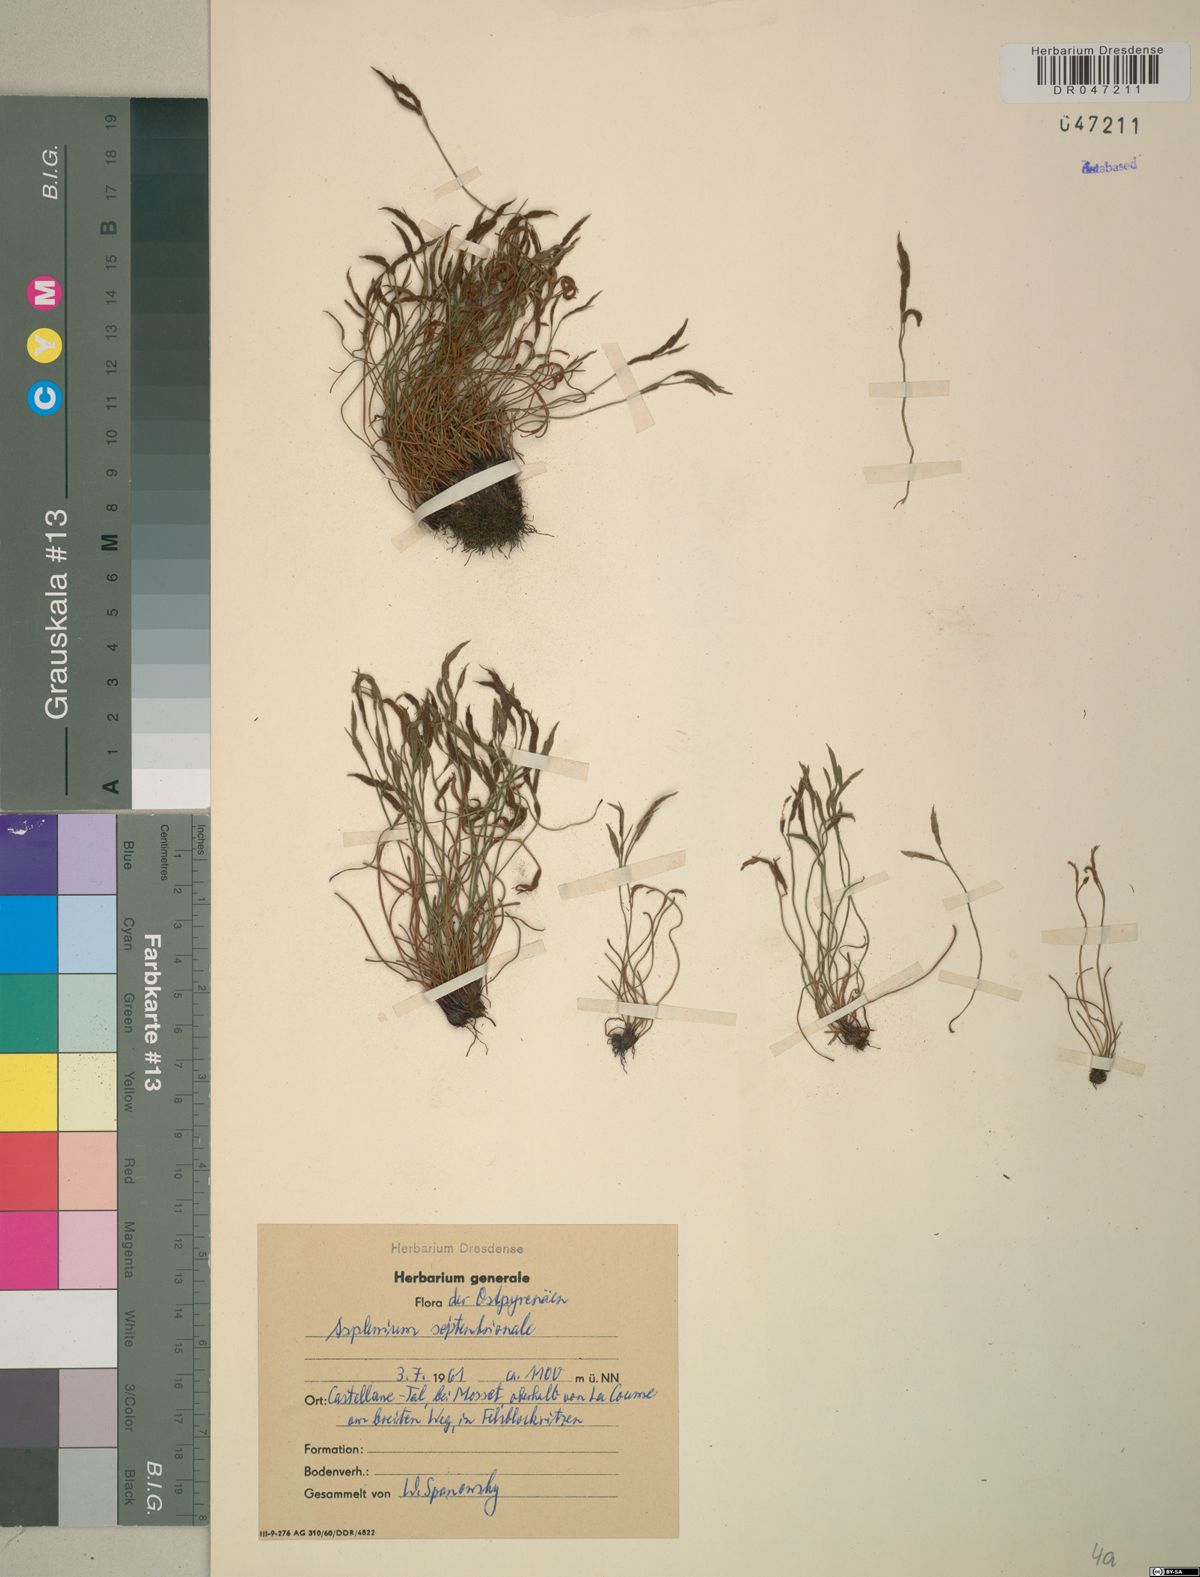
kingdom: Plantae
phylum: Tracheophyta
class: Polypodiopsida
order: Polypodiales
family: Aspleniaceae
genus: Asplenium
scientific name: Asplenium septentrionale
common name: Forked spleenwort
